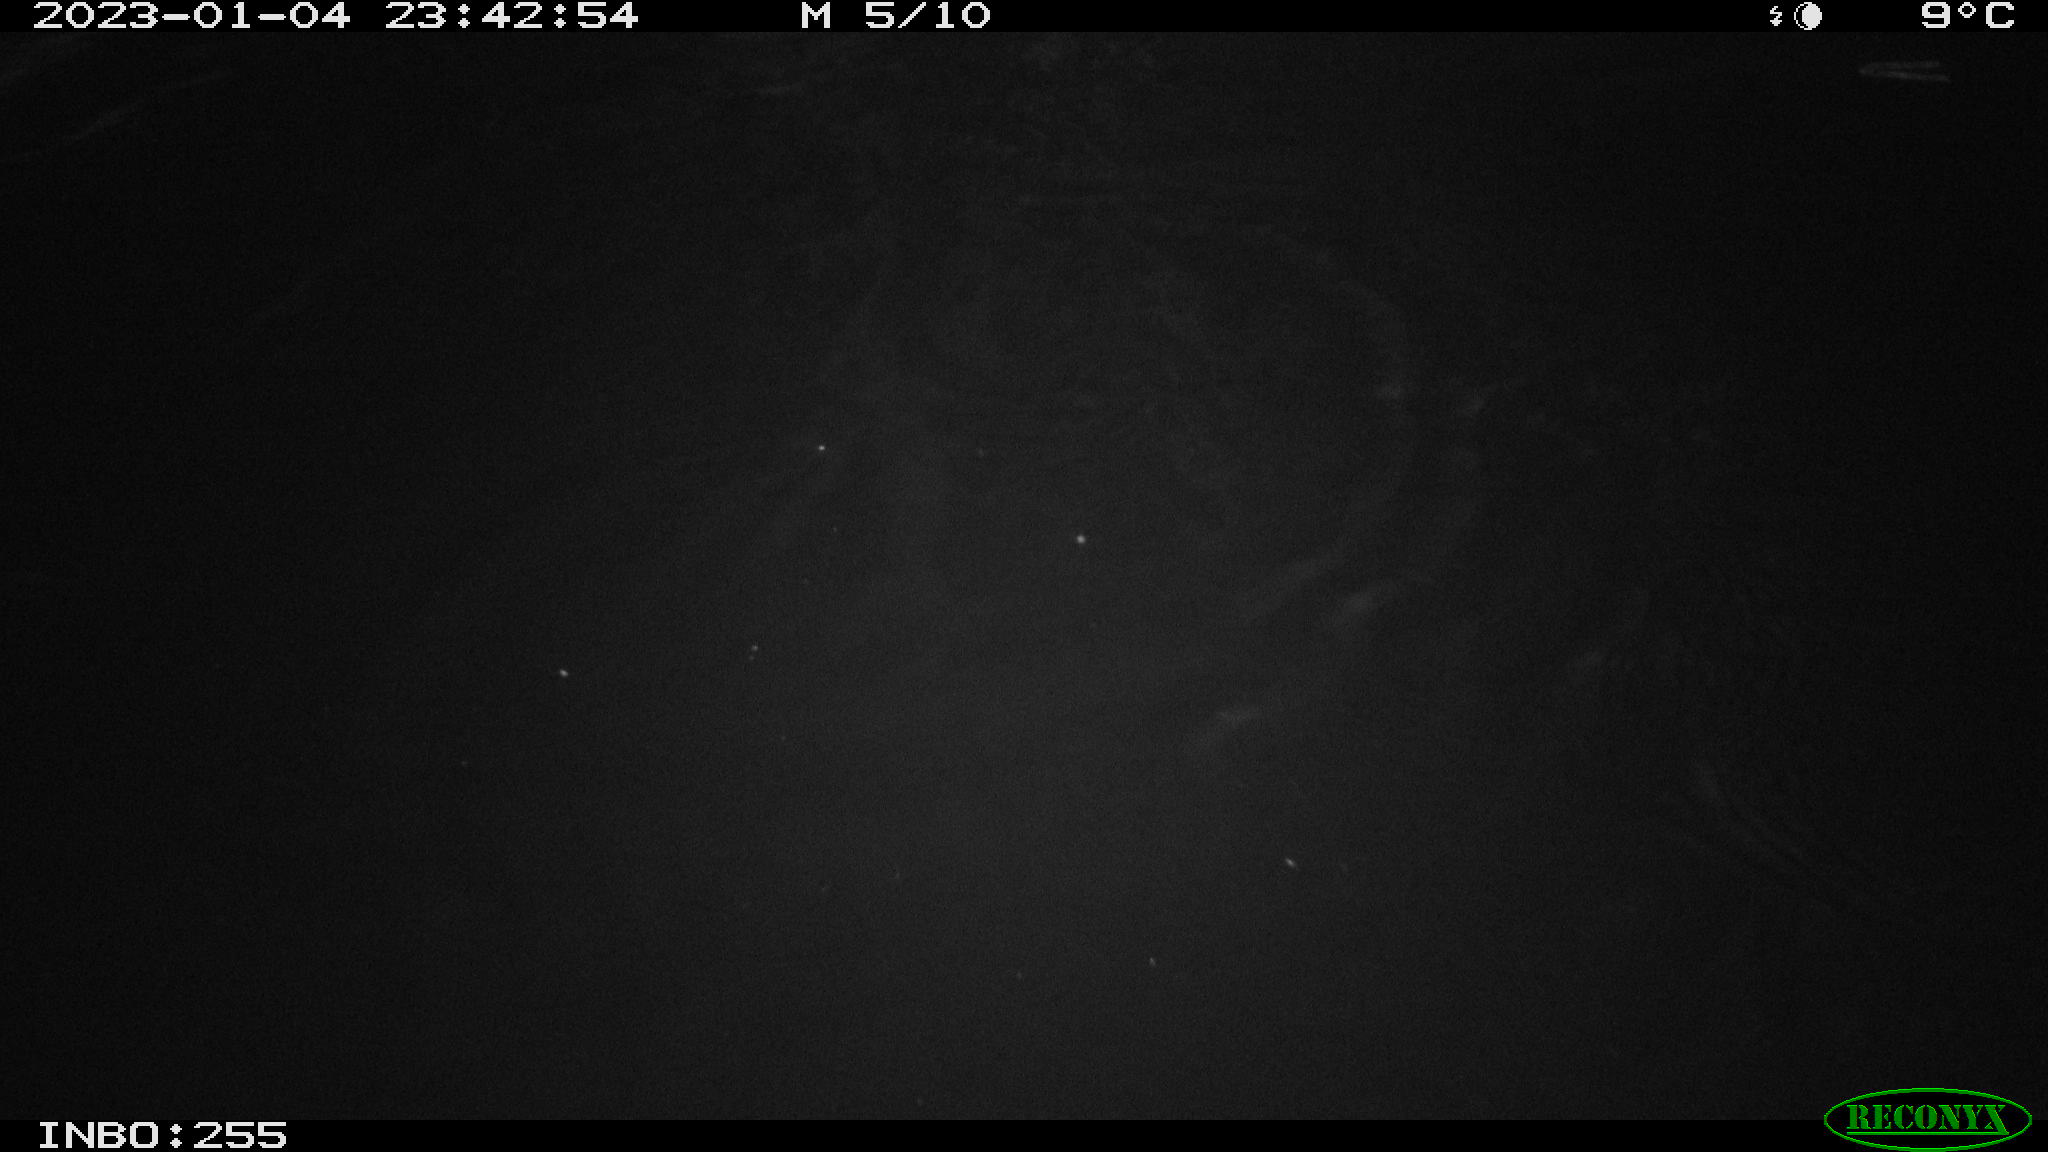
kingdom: Animalia
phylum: Chordata
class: Mammalia
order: Rodentia
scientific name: Rodentia
